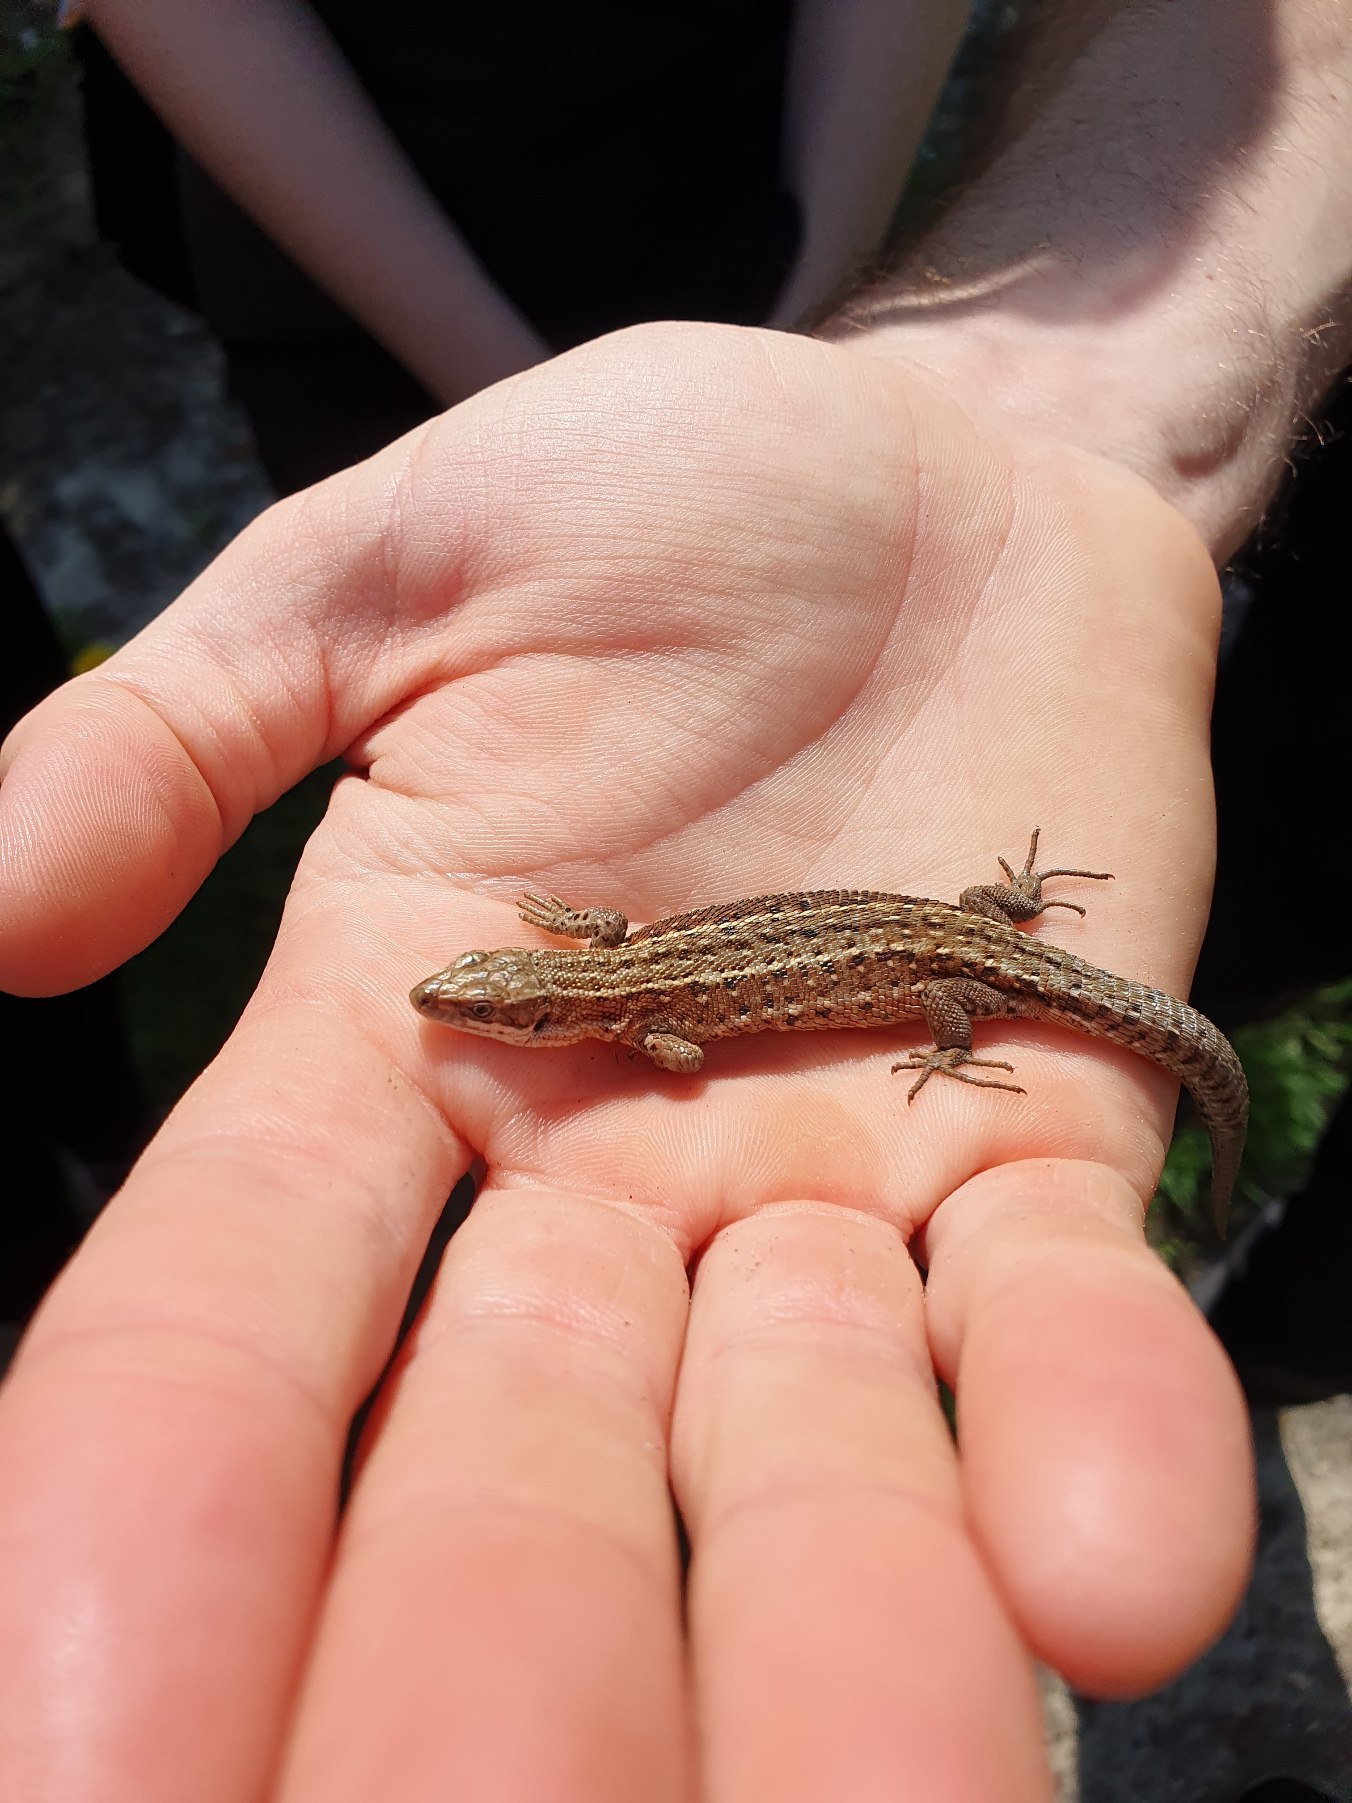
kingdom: Animalia
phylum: Chordata
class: Squamata
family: Lacertidae
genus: Zootoca
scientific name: Zootoca vivipara
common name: Skovfirben
